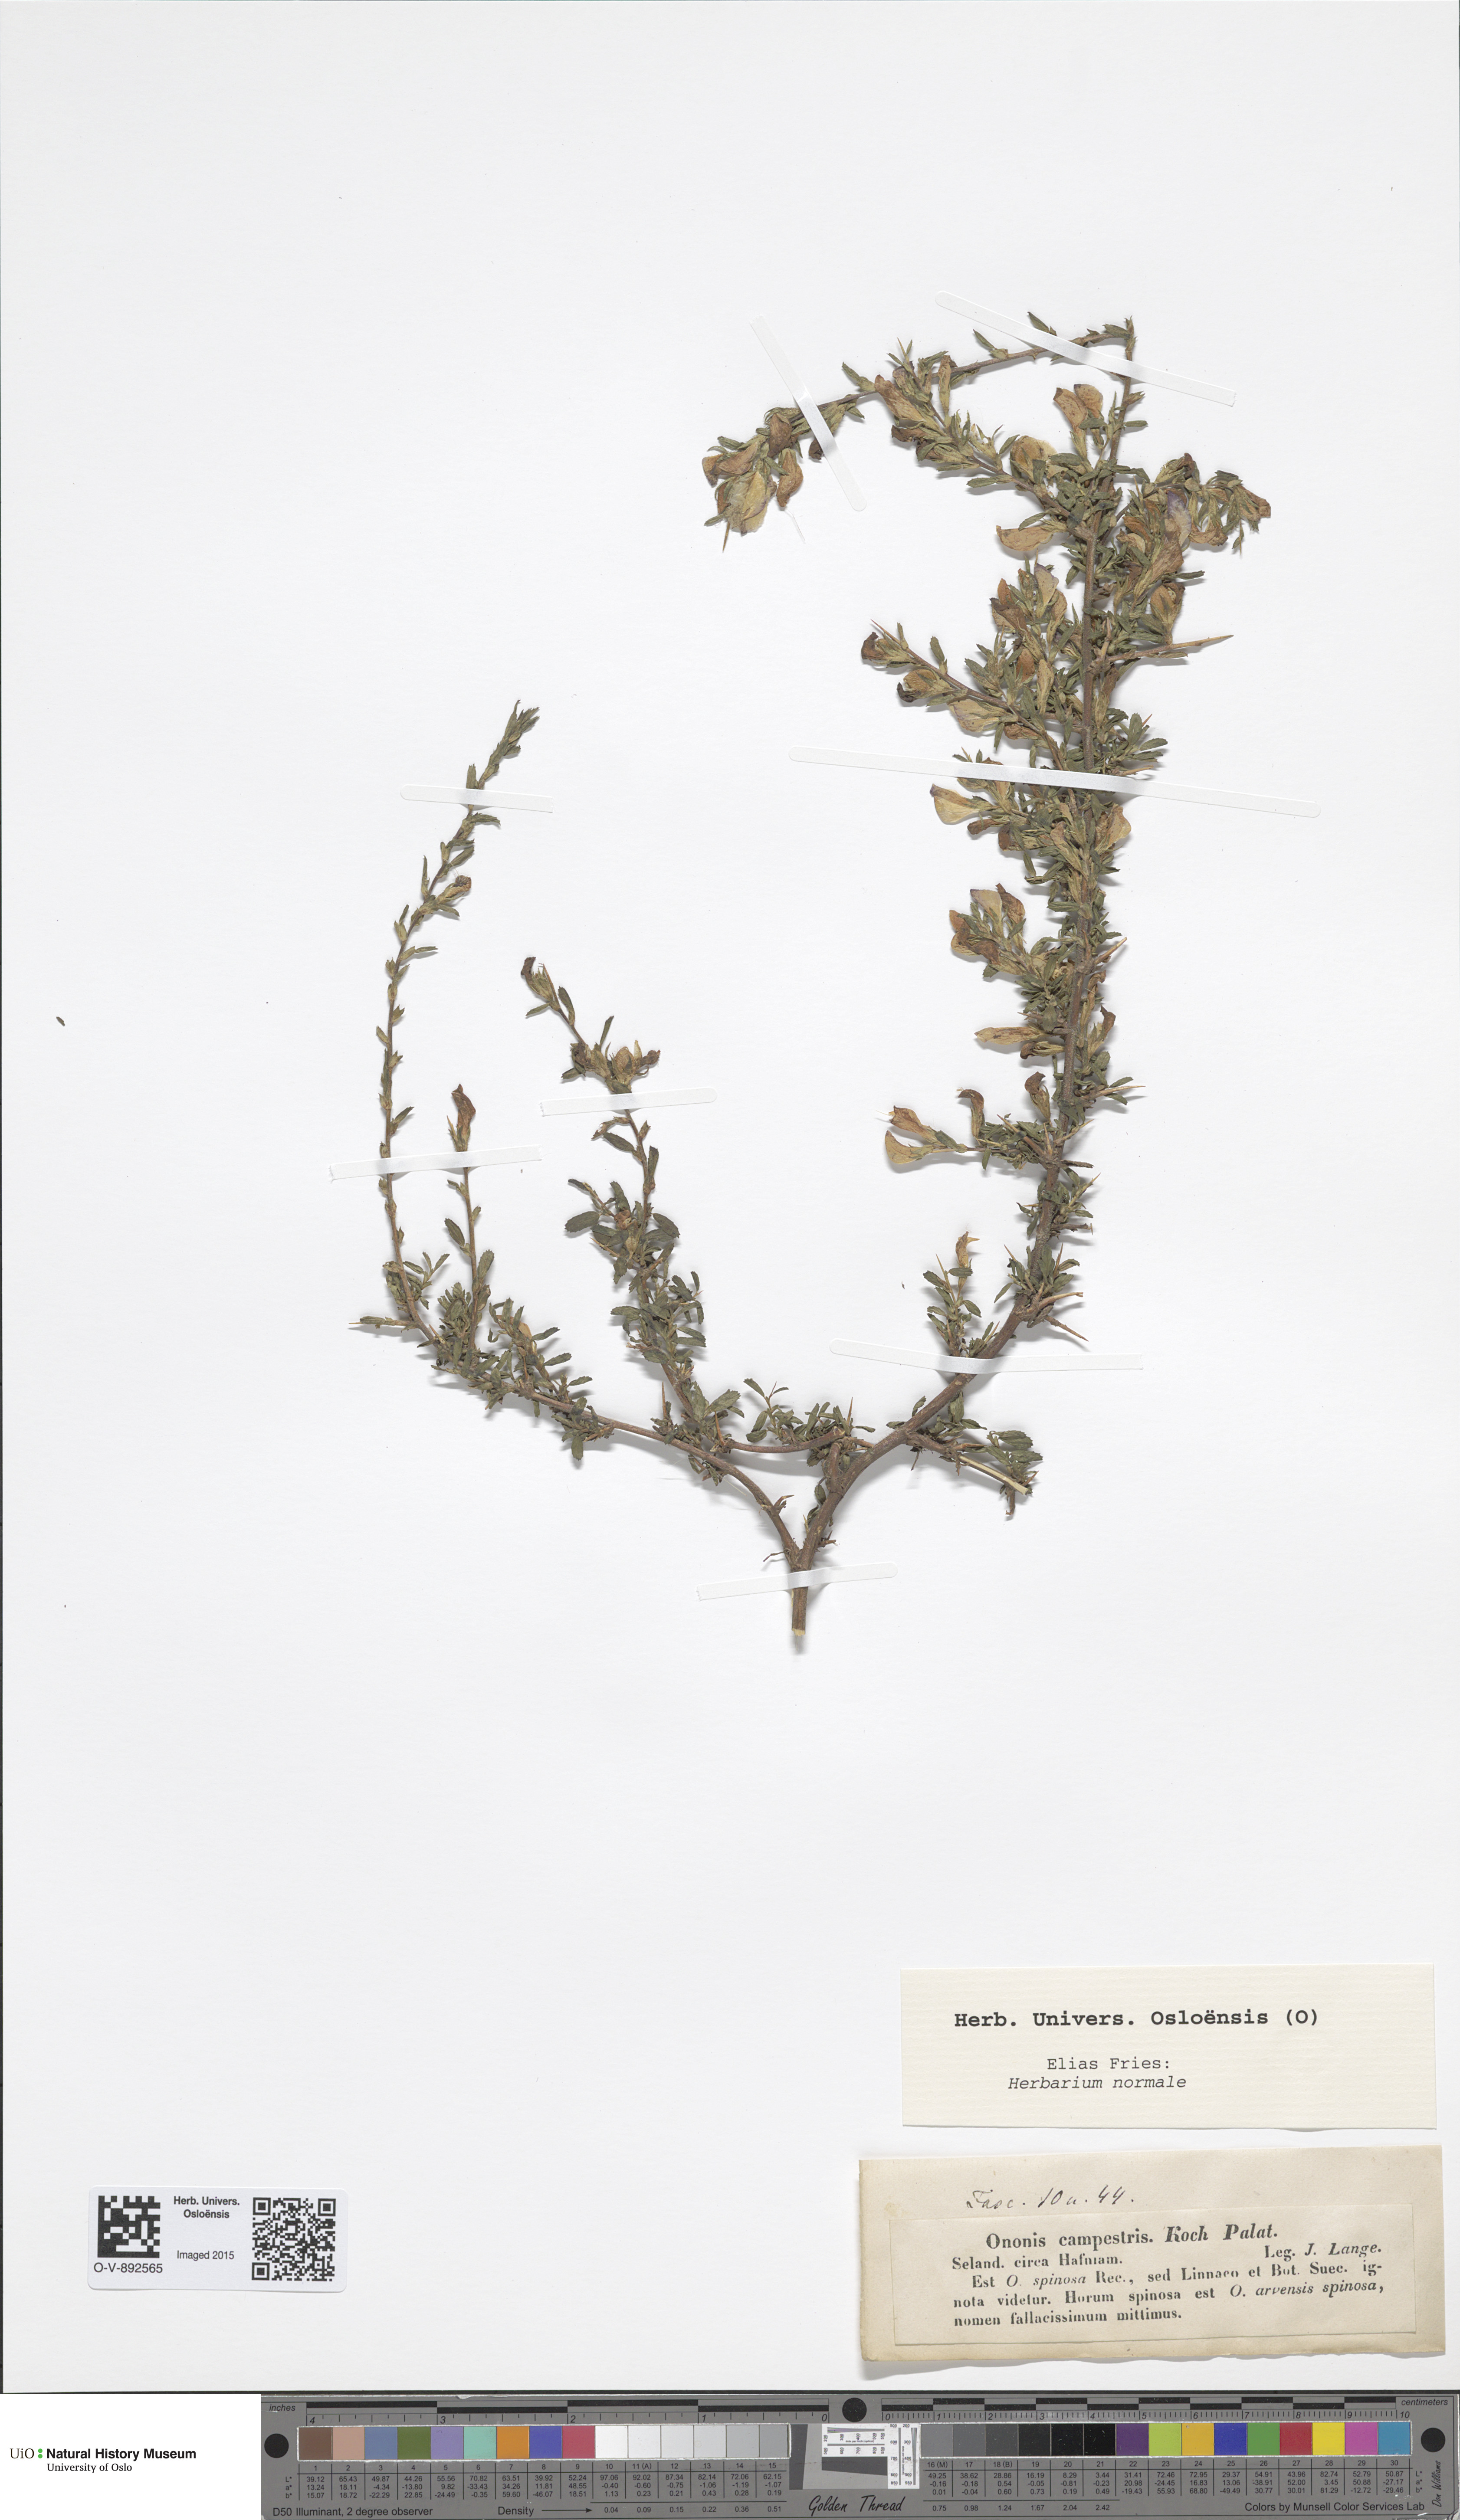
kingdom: Plantae
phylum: Tracheophyta
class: Magnoliopsida
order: Fabales
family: Fabaceae
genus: Ononis
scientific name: Ononis spinosa
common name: Spiny restharrow
